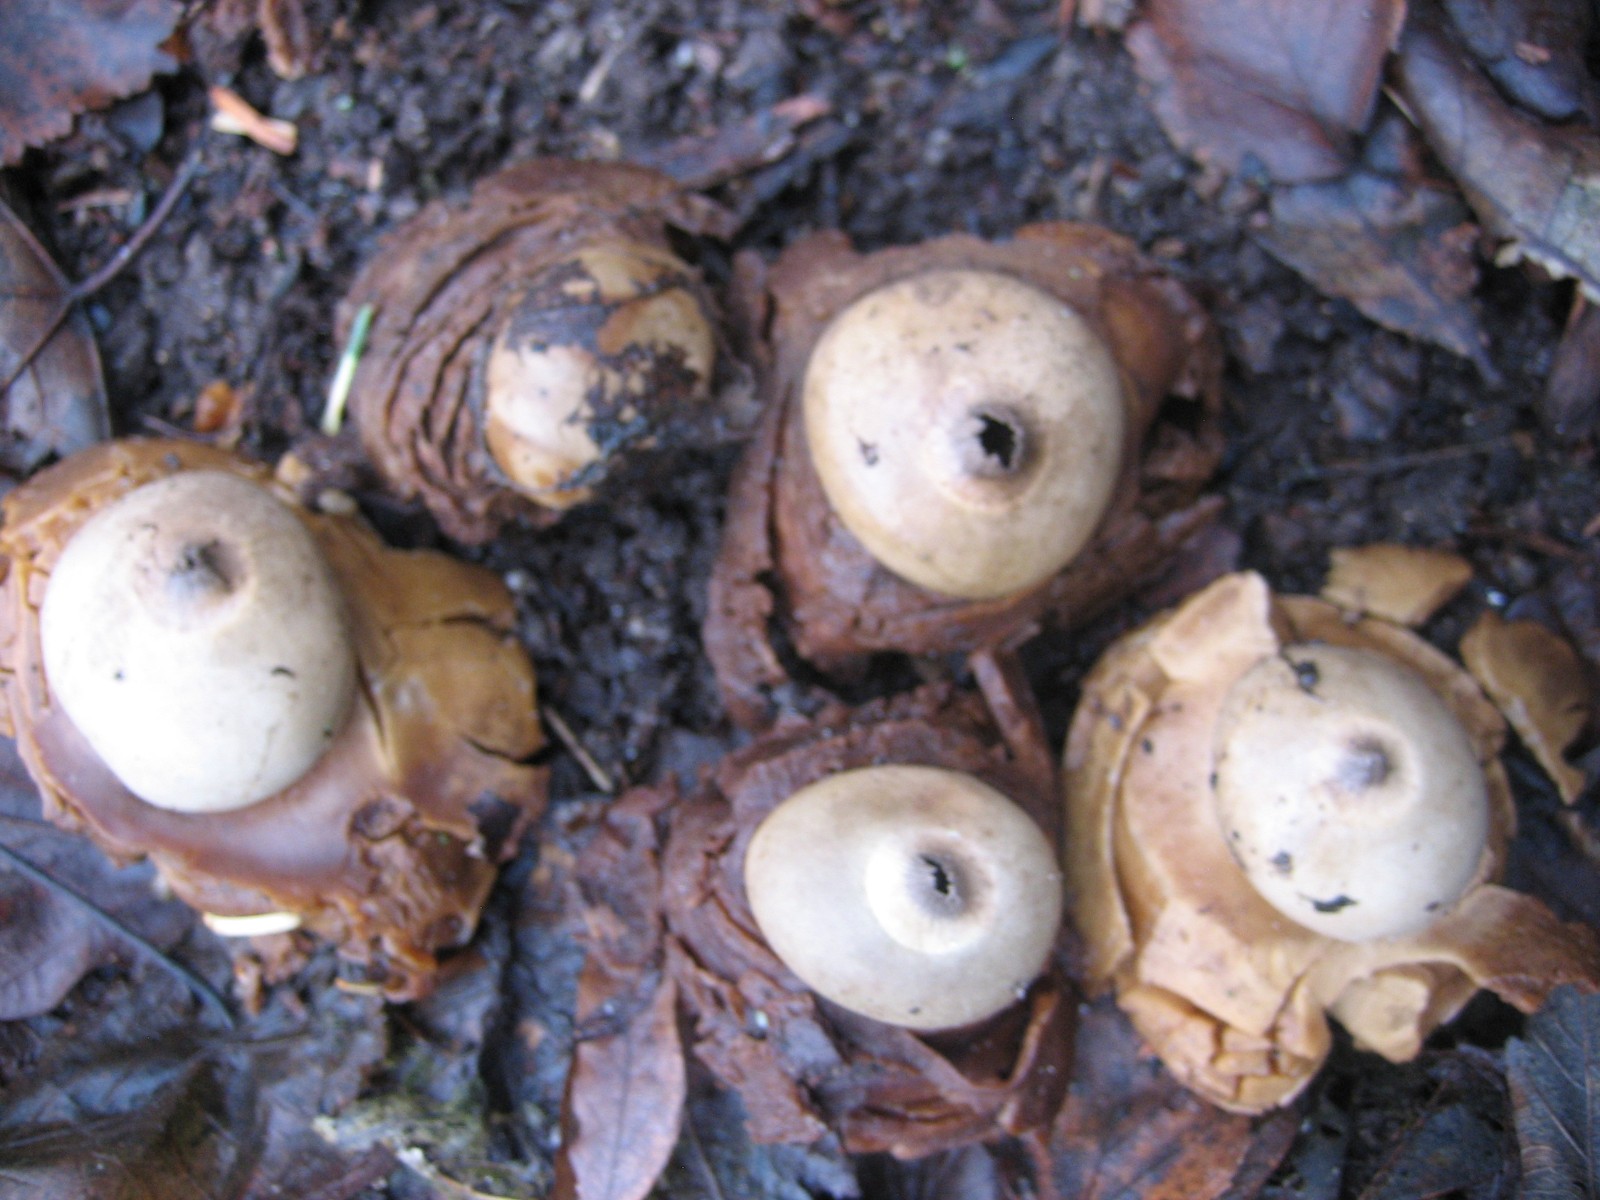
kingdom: Fungi
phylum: Basidiomycota
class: Agaricomycetes
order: Geastrales
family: Geastraceae
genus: Geastrum
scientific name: Geastrum michelianum
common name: kødet stjernebold
